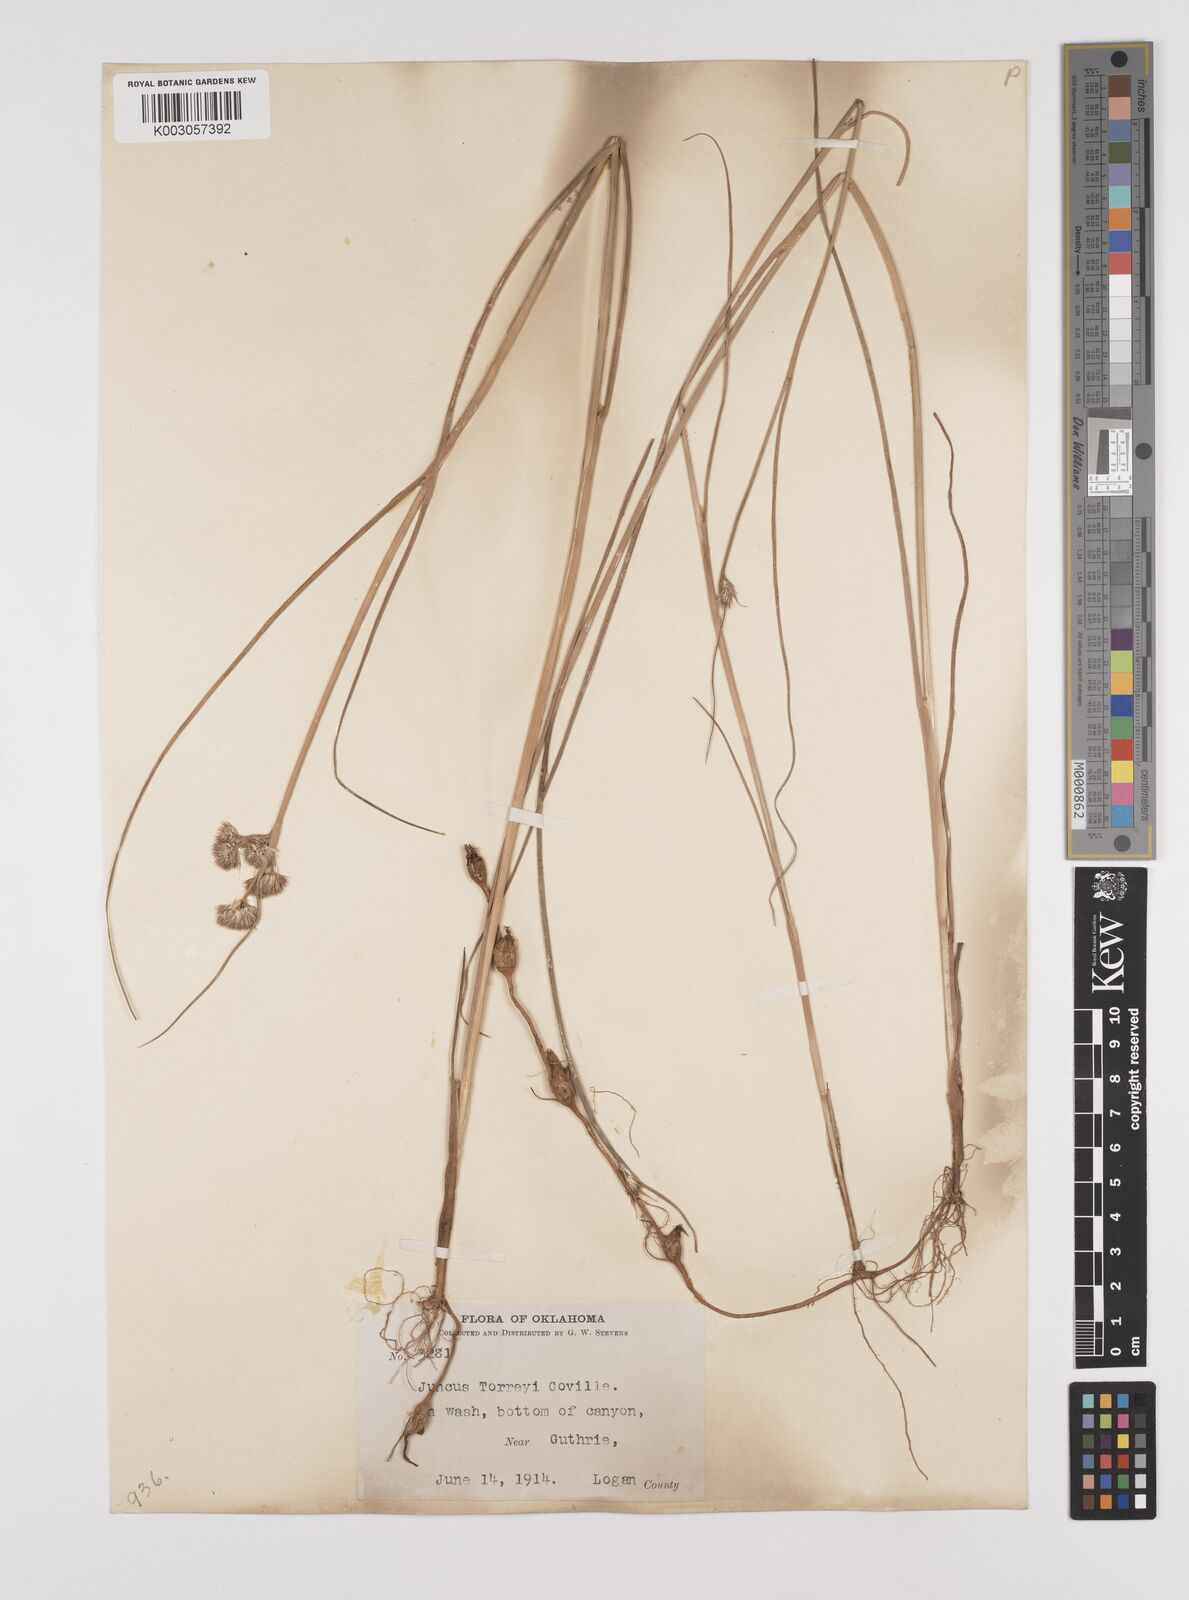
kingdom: Plantae
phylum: Tracheophyta
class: Liliopsida
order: Poales
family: Juncaceae
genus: Juncus
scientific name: Juncus torreyi
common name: Torrey's rush
